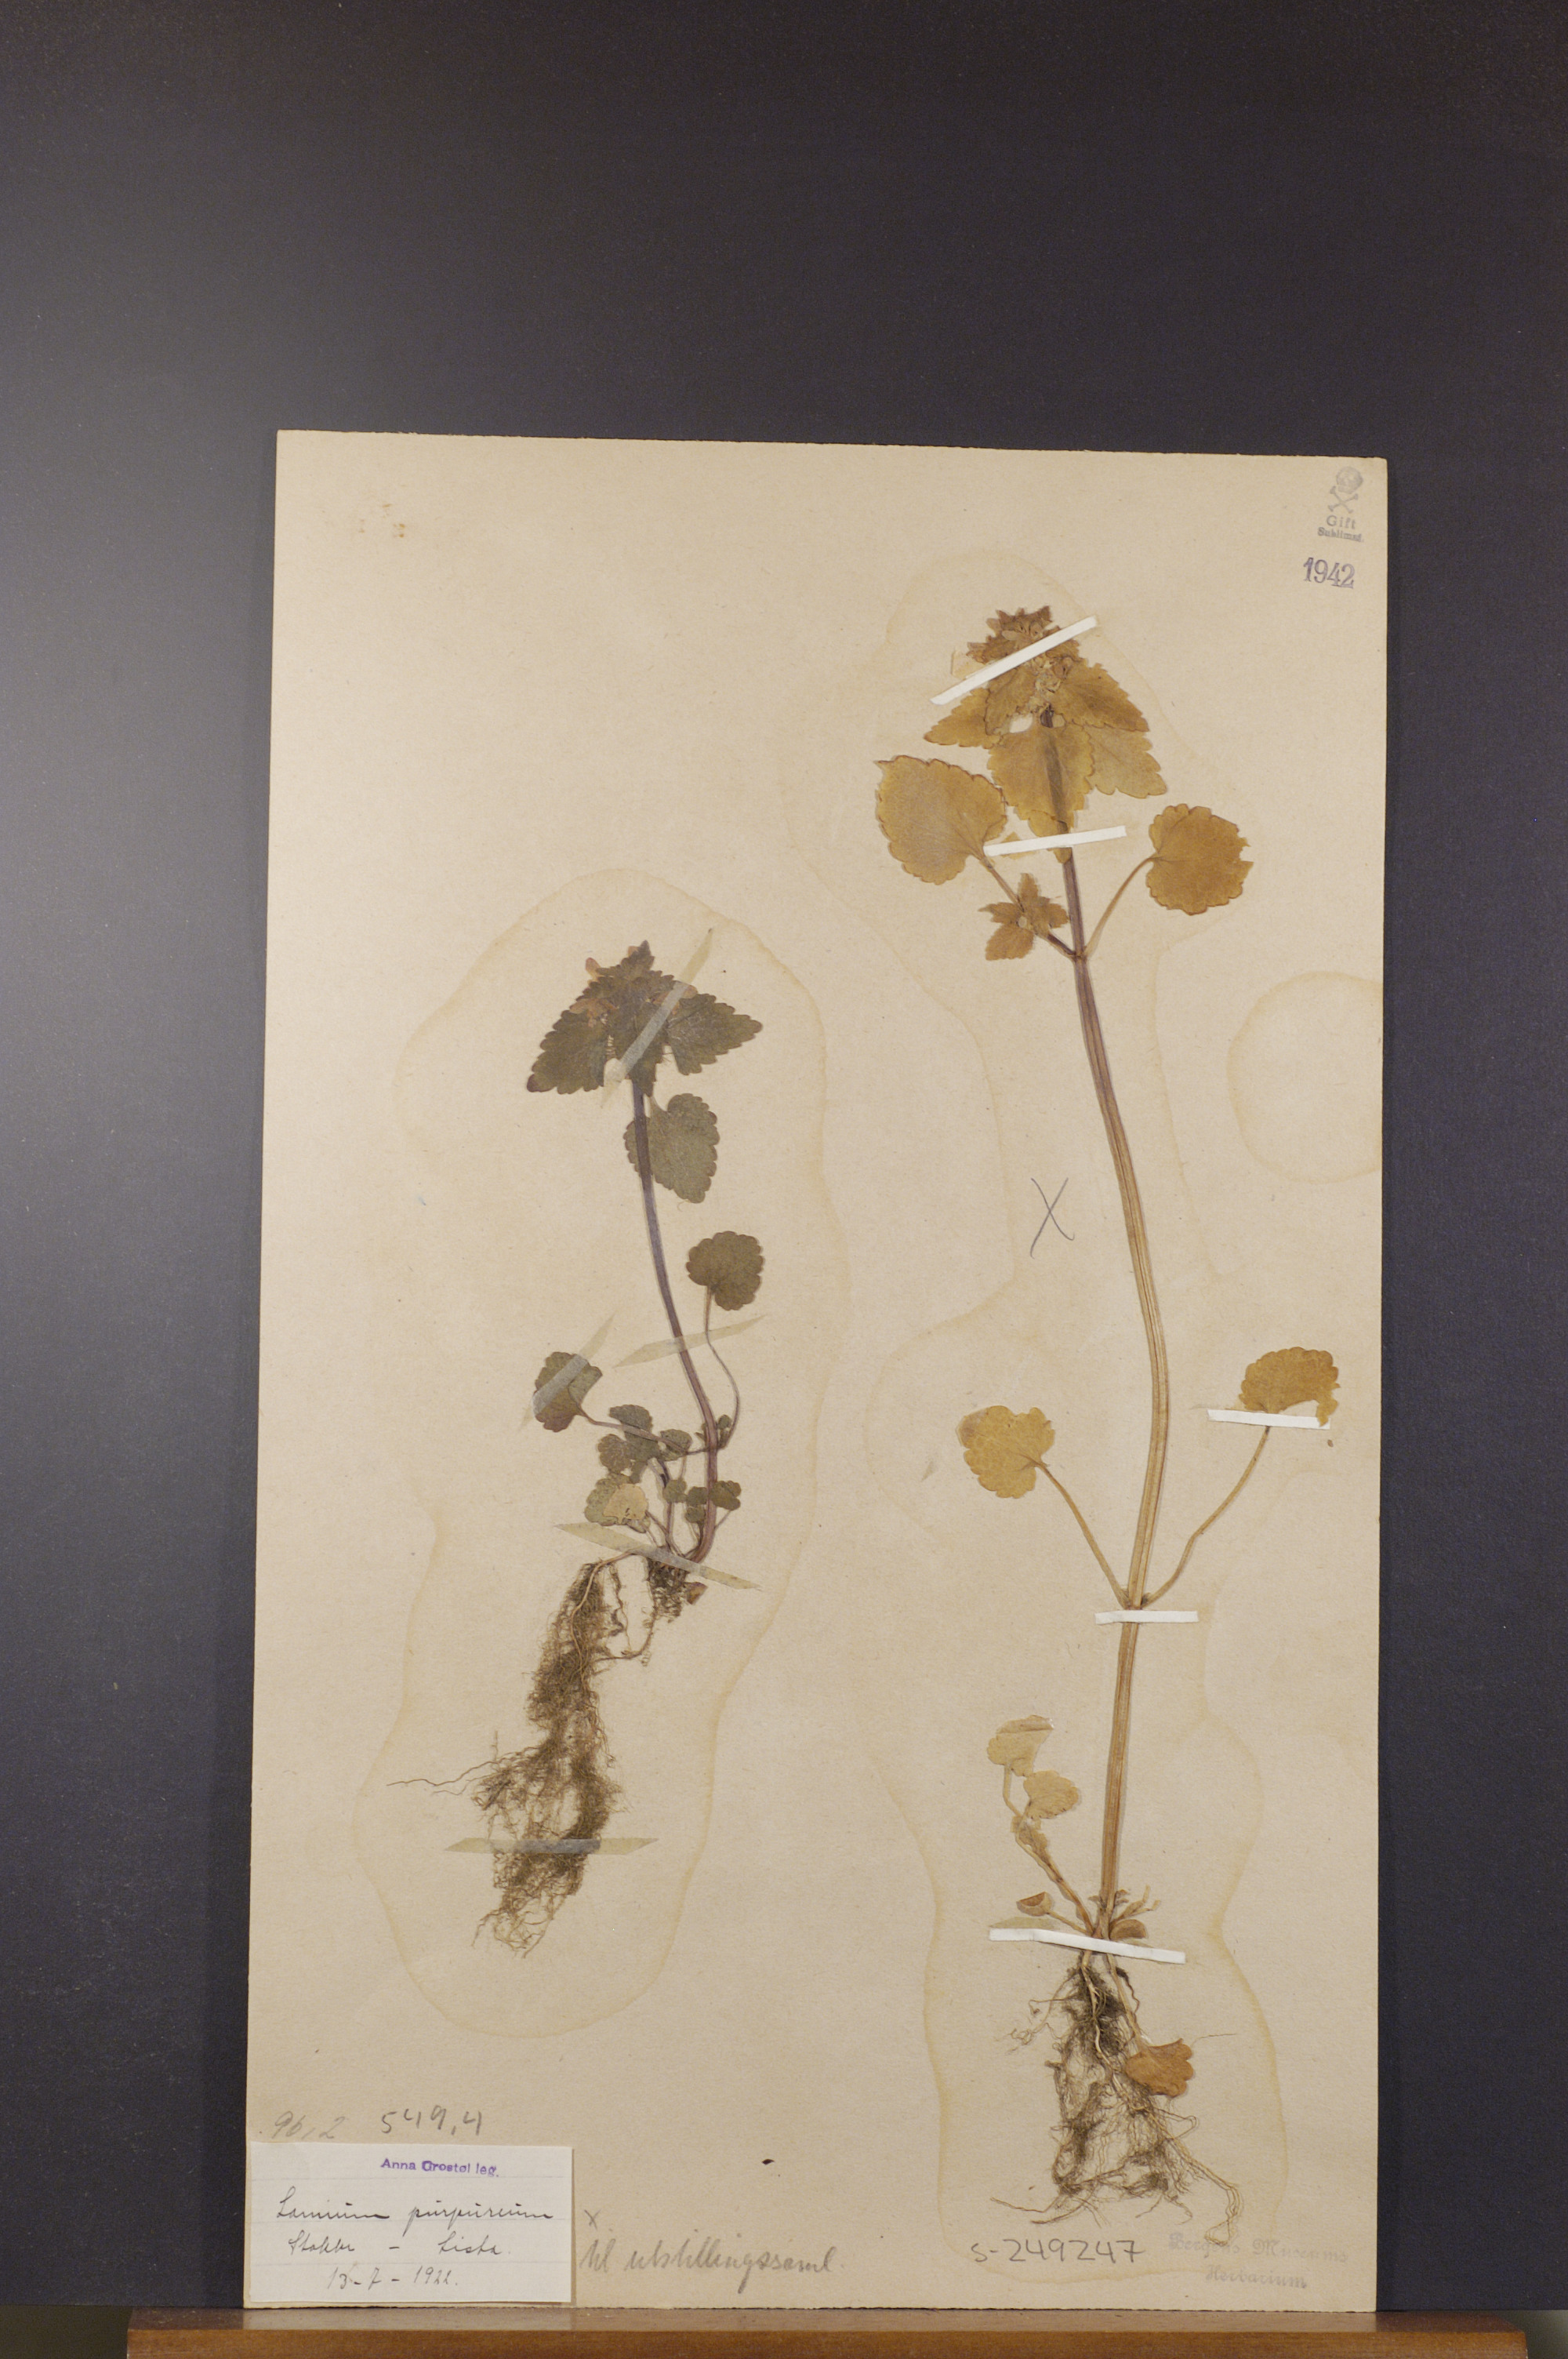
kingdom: Plantae
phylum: Tracheophyta
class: Magnoliopsida
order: Lamiales
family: Lamiaceae
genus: Lamium
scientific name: Lamium purpureum
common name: Red dead-nettle
